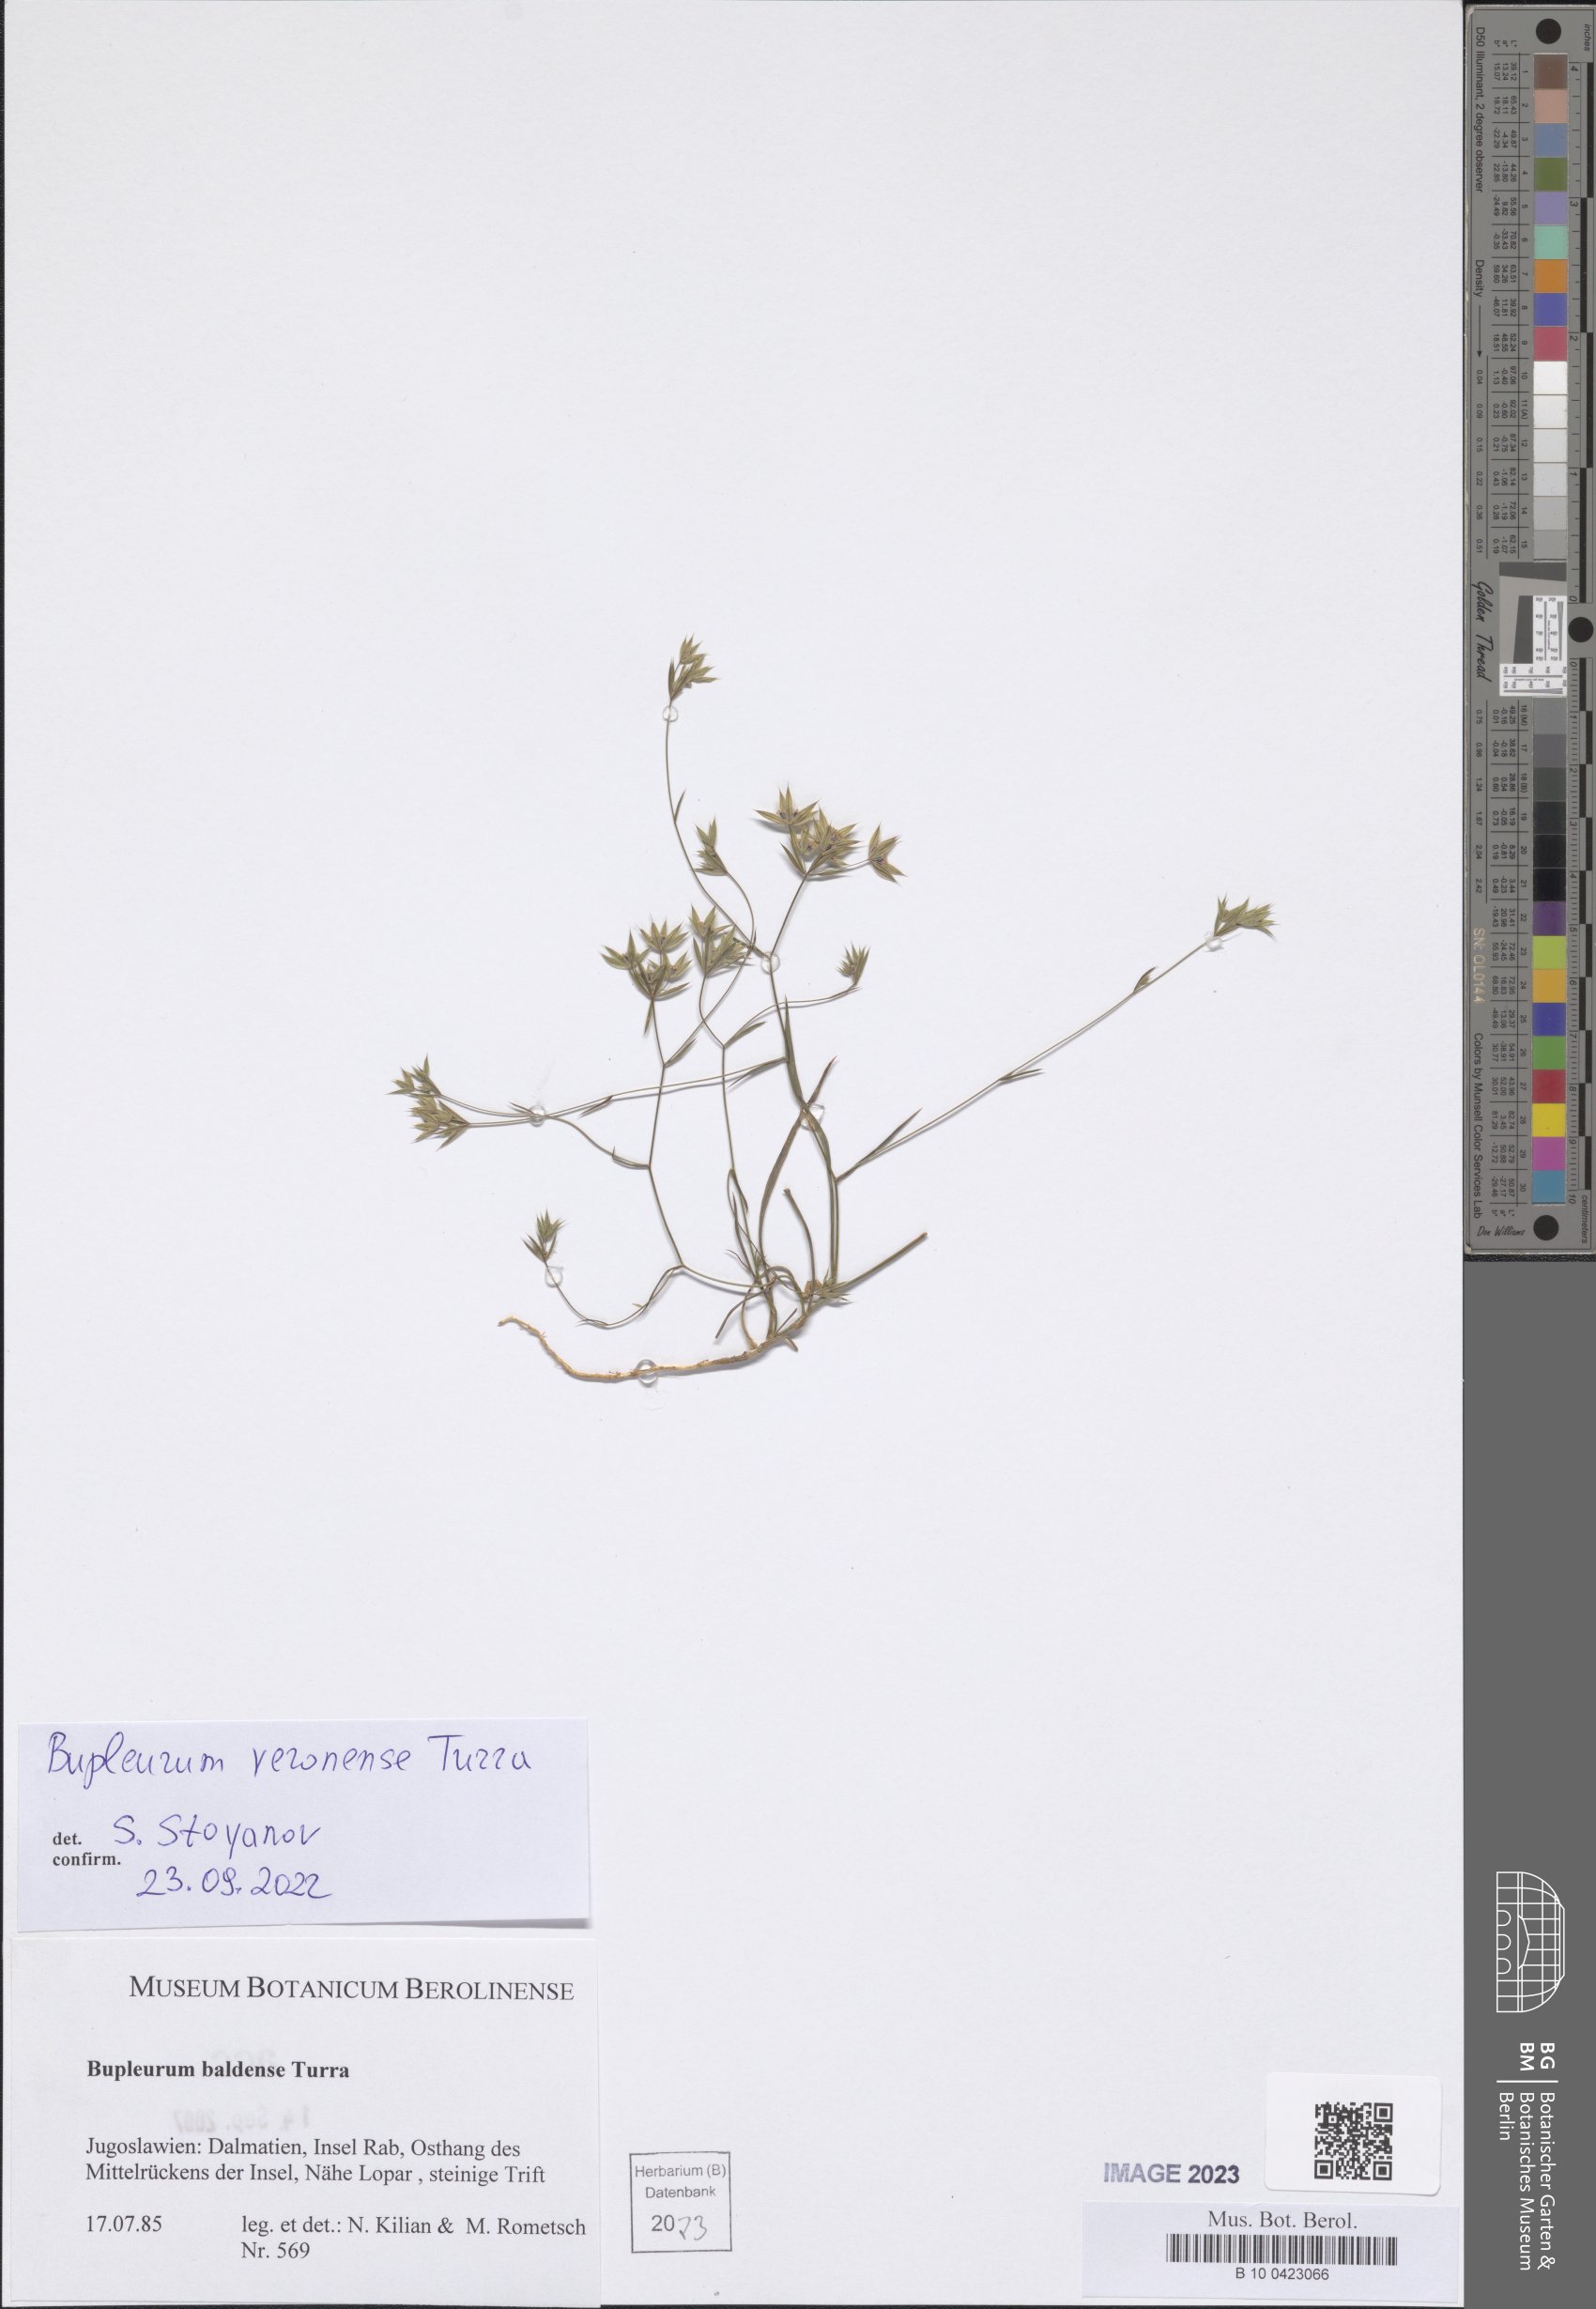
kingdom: Plantae
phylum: Tracheophyta
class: Magnoliopsida
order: Apiales
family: Apiaceae
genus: Bupleurum
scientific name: Bupleurum veronense
